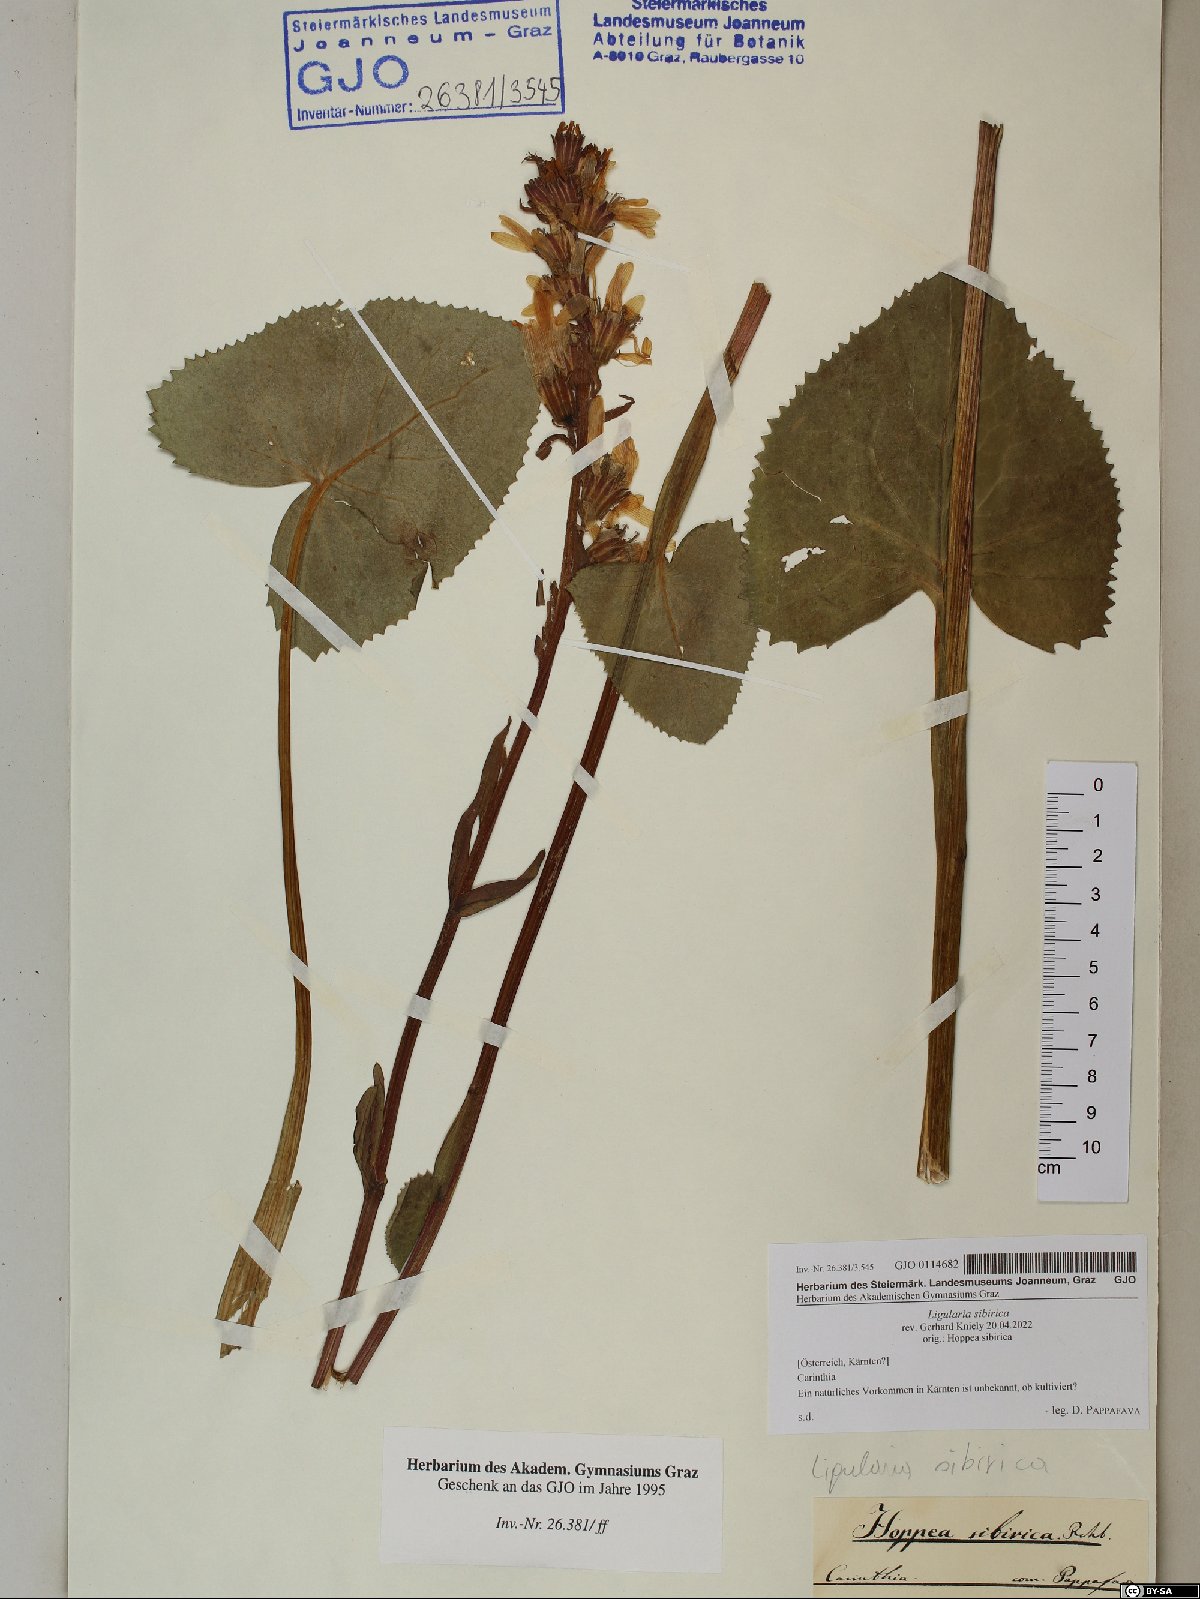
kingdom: Plantae
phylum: Tracheophyta
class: Magnoliopsida
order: Asterales
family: Asteraceae
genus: Ligularia
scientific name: Ligularia sibirica
